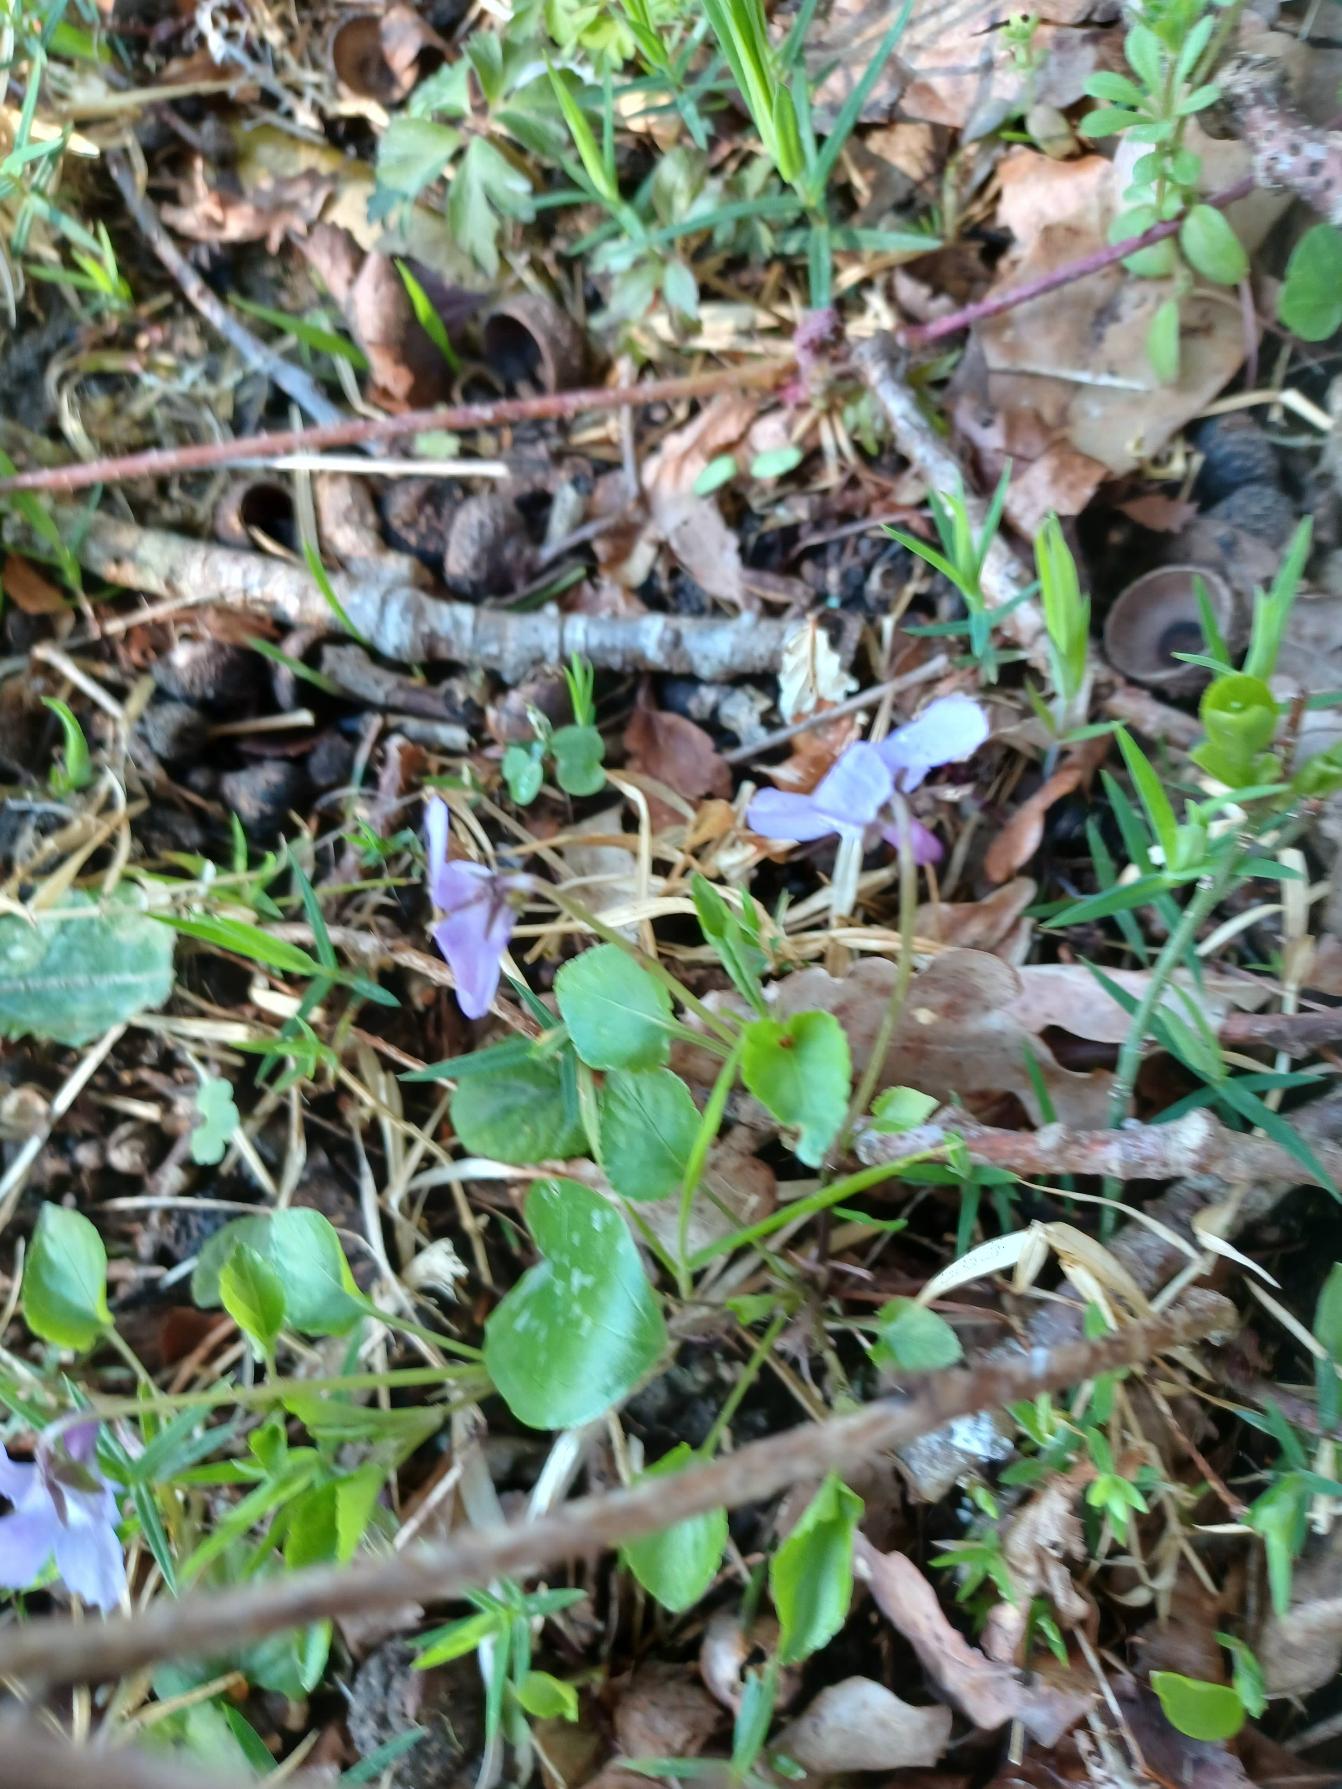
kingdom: Plantae
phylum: Tracheophyta
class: Magnoliopsida
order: Malpighiales
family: Violaceae
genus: Viola
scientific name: Viola reichenbachiana
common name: Skov-viol
